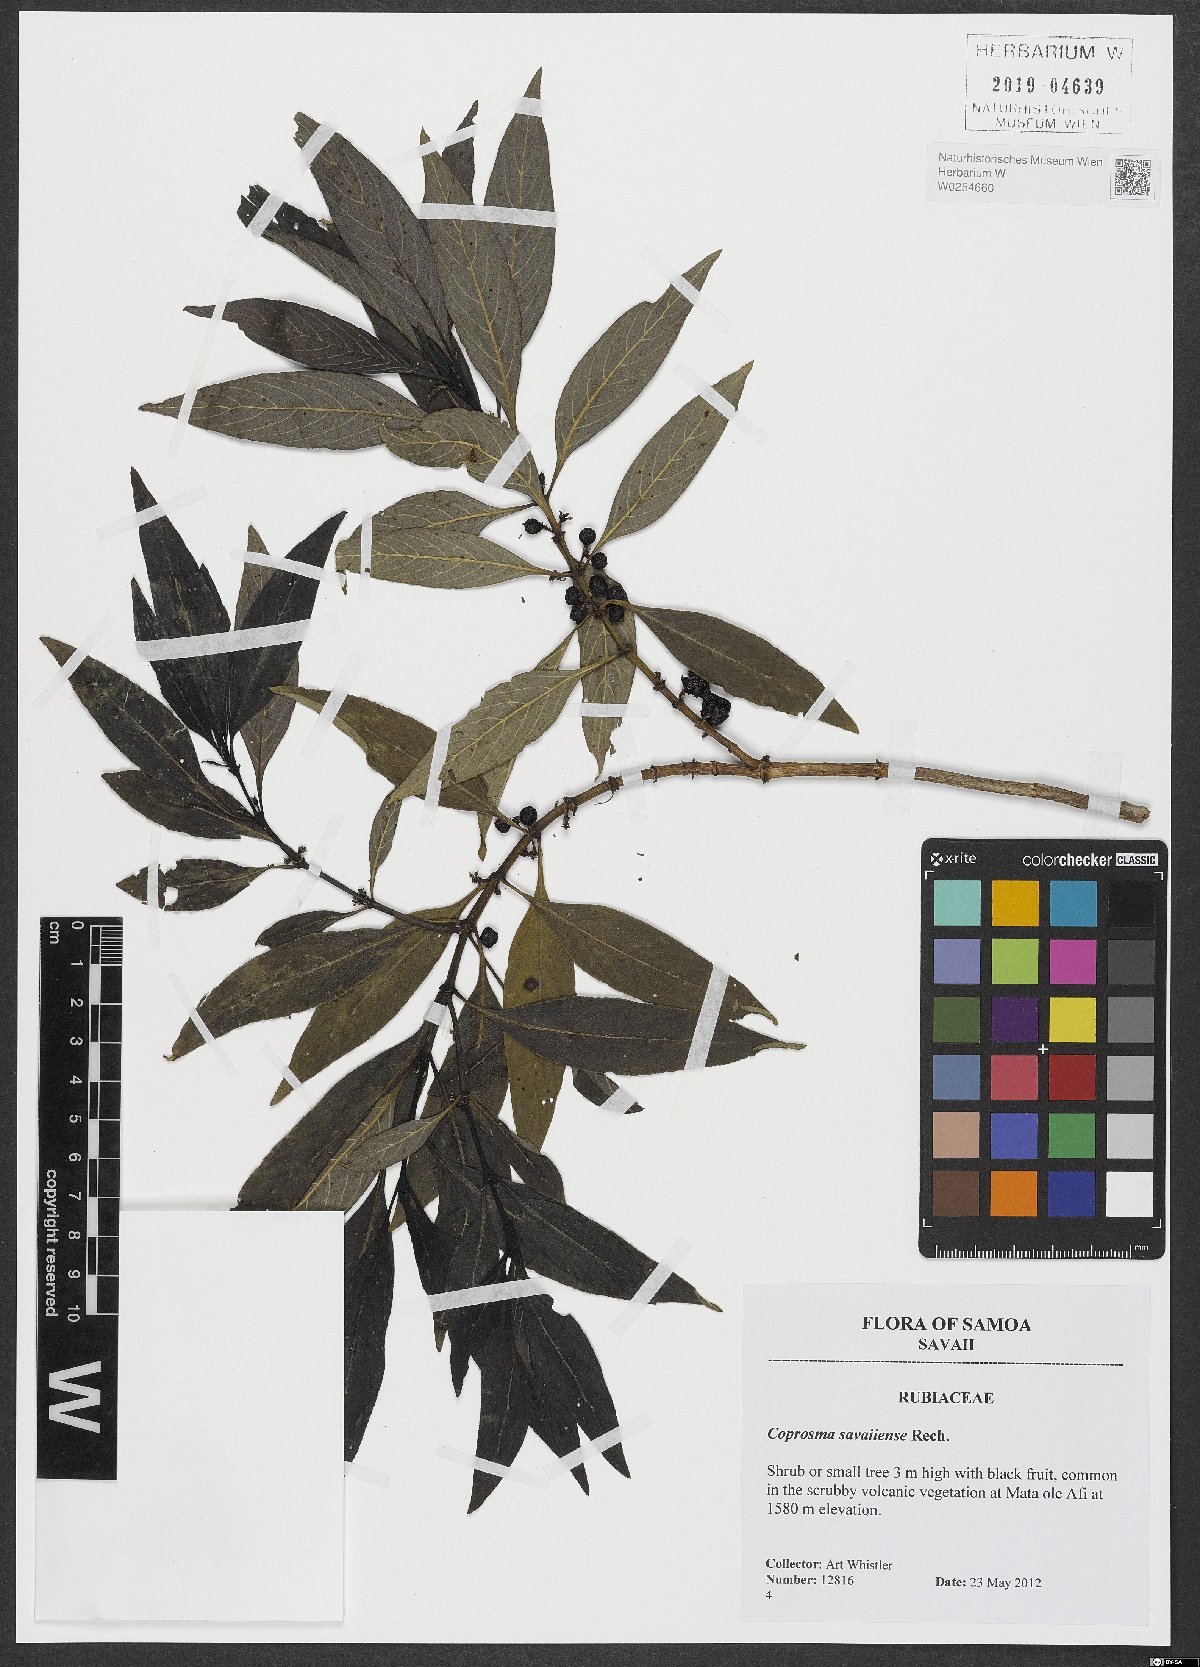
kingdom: Plantae
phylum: Tracheophyta
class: Magnoliopsida
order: Gentianales
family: Rubiaceae
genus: Coprosma
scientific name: Coprosma savaiiensis
